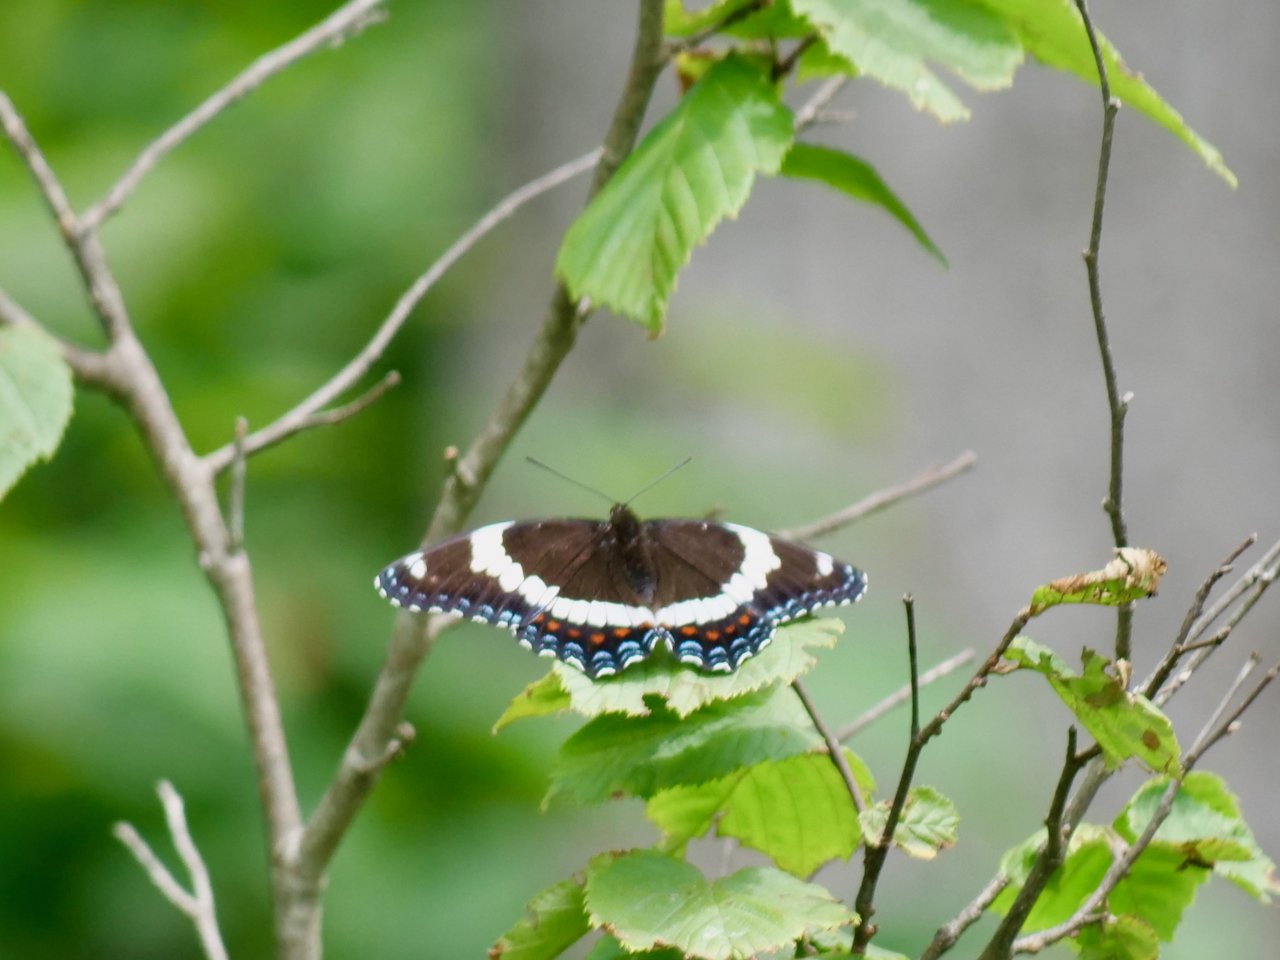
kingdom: Animalia
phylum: Arthropoda
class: Insecta
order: Lepidoptera
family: Nymphalidae
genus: Limenitis
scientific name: Limenitis arthemis
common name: Red-spotted Admiral
